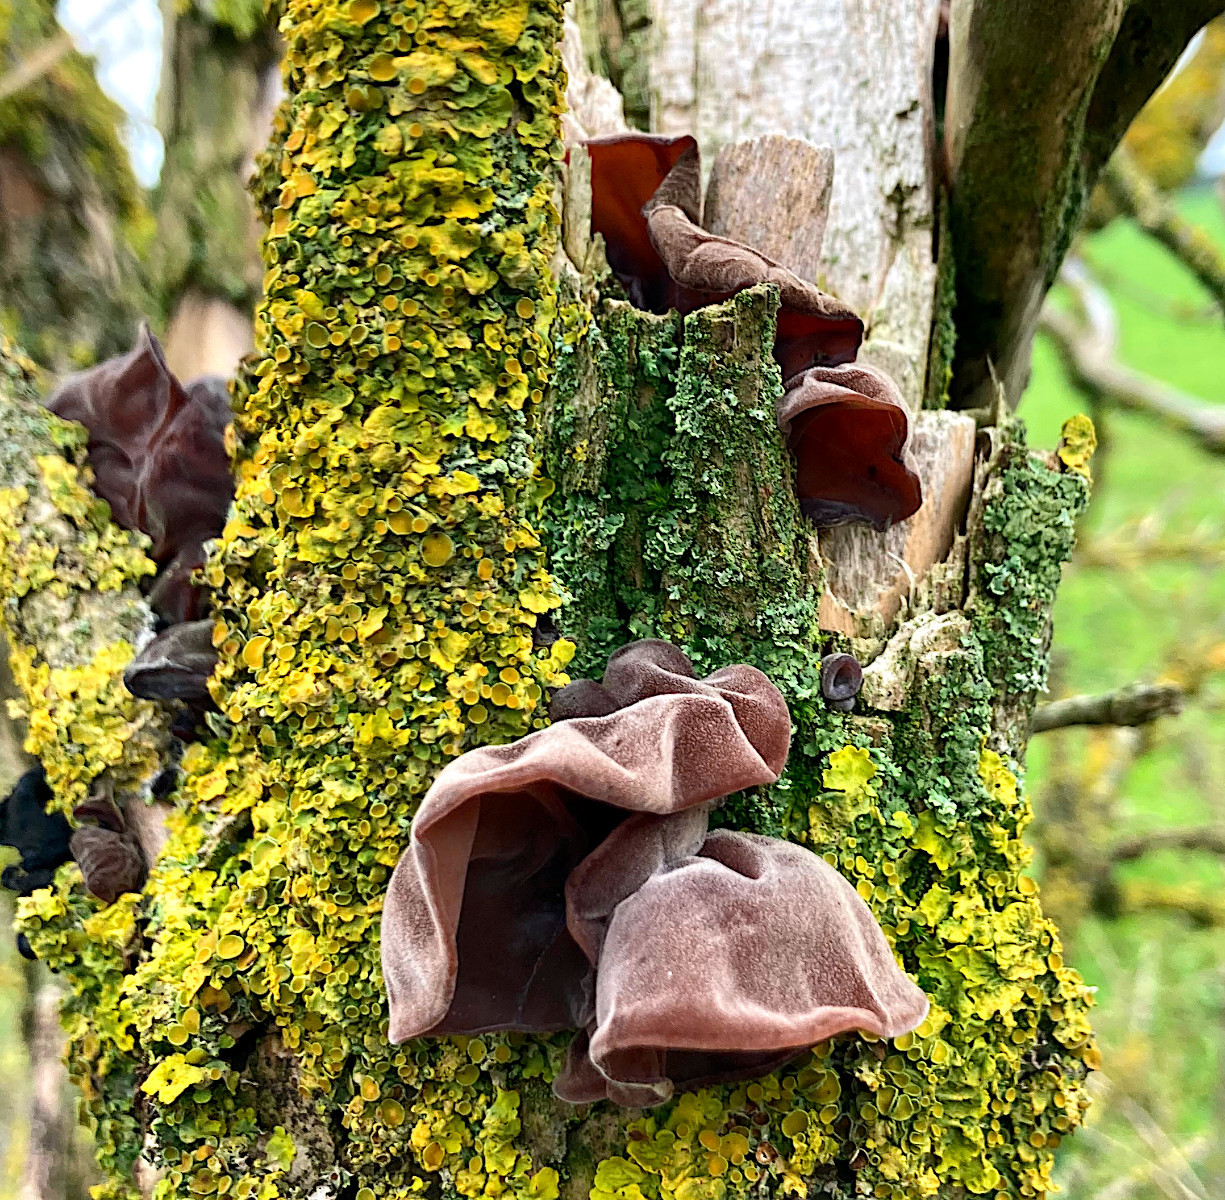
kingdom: Fungi
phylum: Basidiomycota
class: Agaricomycetes
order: Auriculariales
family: Auriculariaceae
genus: Auricularia
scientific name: Auricularia auricula-judae
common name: almindelig judasøre
